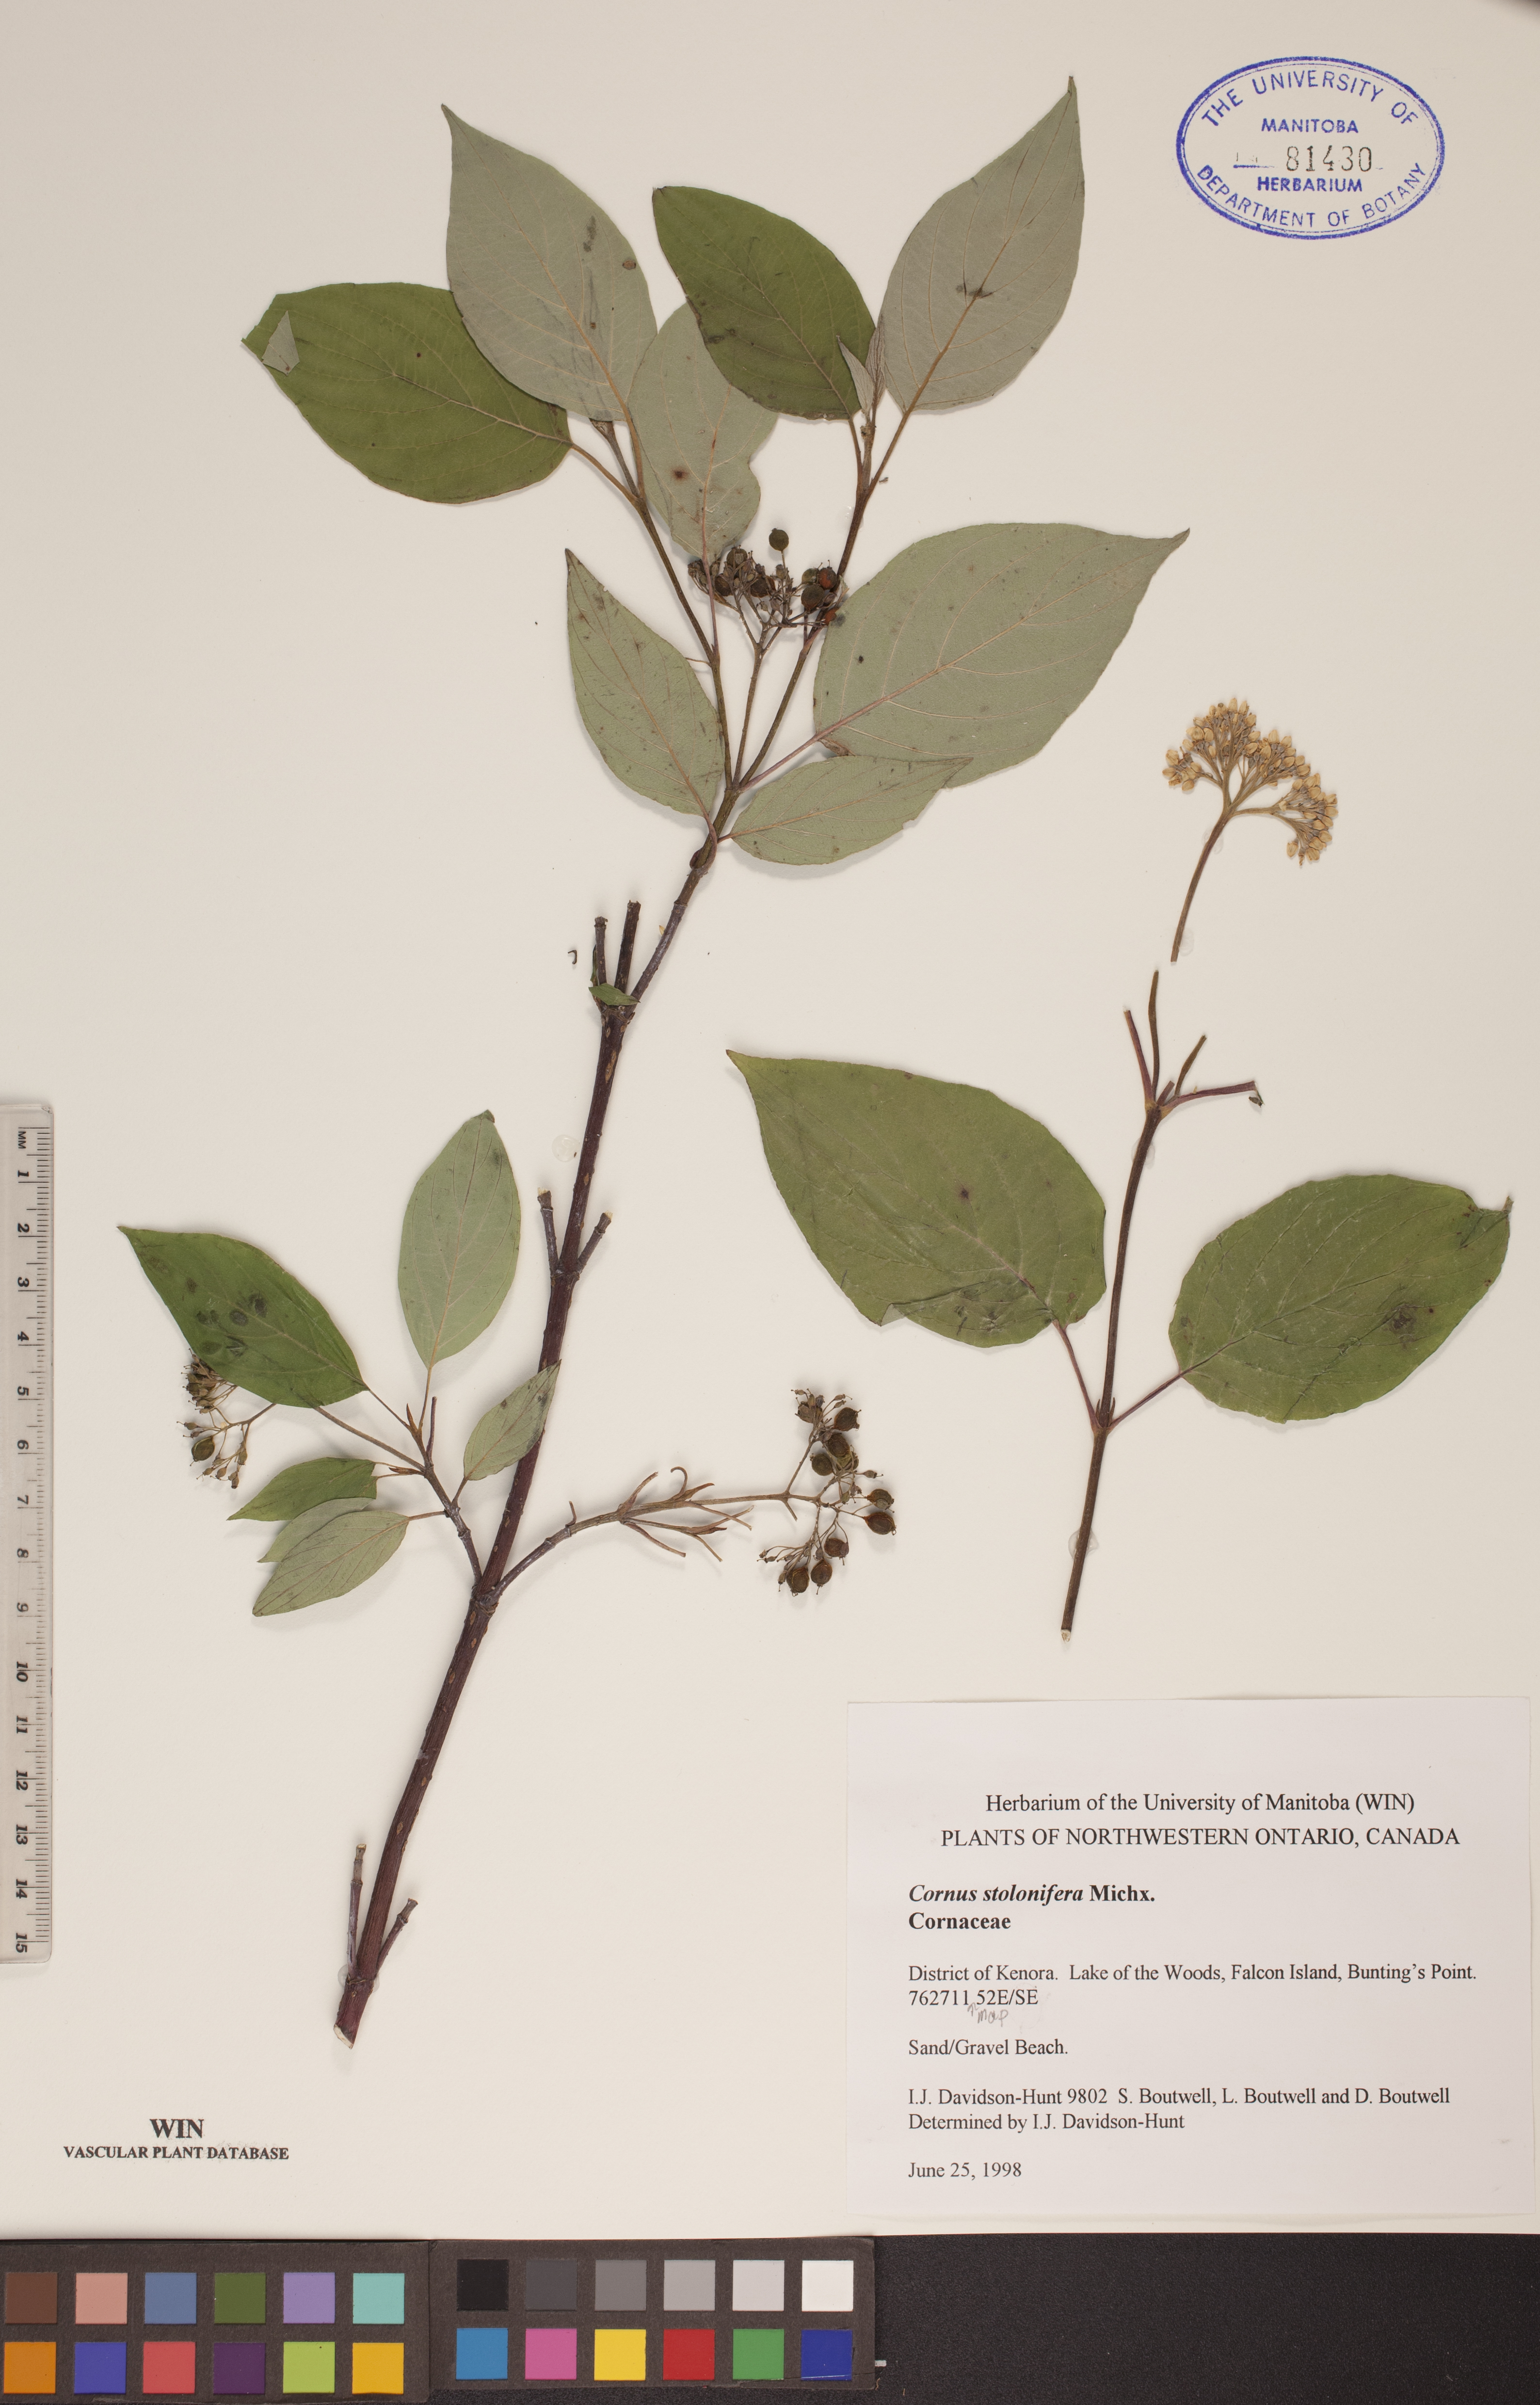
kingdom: Plantae
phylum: Tracheophyta
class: Magnoliopsida
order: Cornales
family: Cornaceae
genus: Cornus
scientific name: Cornus sericea
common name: Red-osier dogwood
